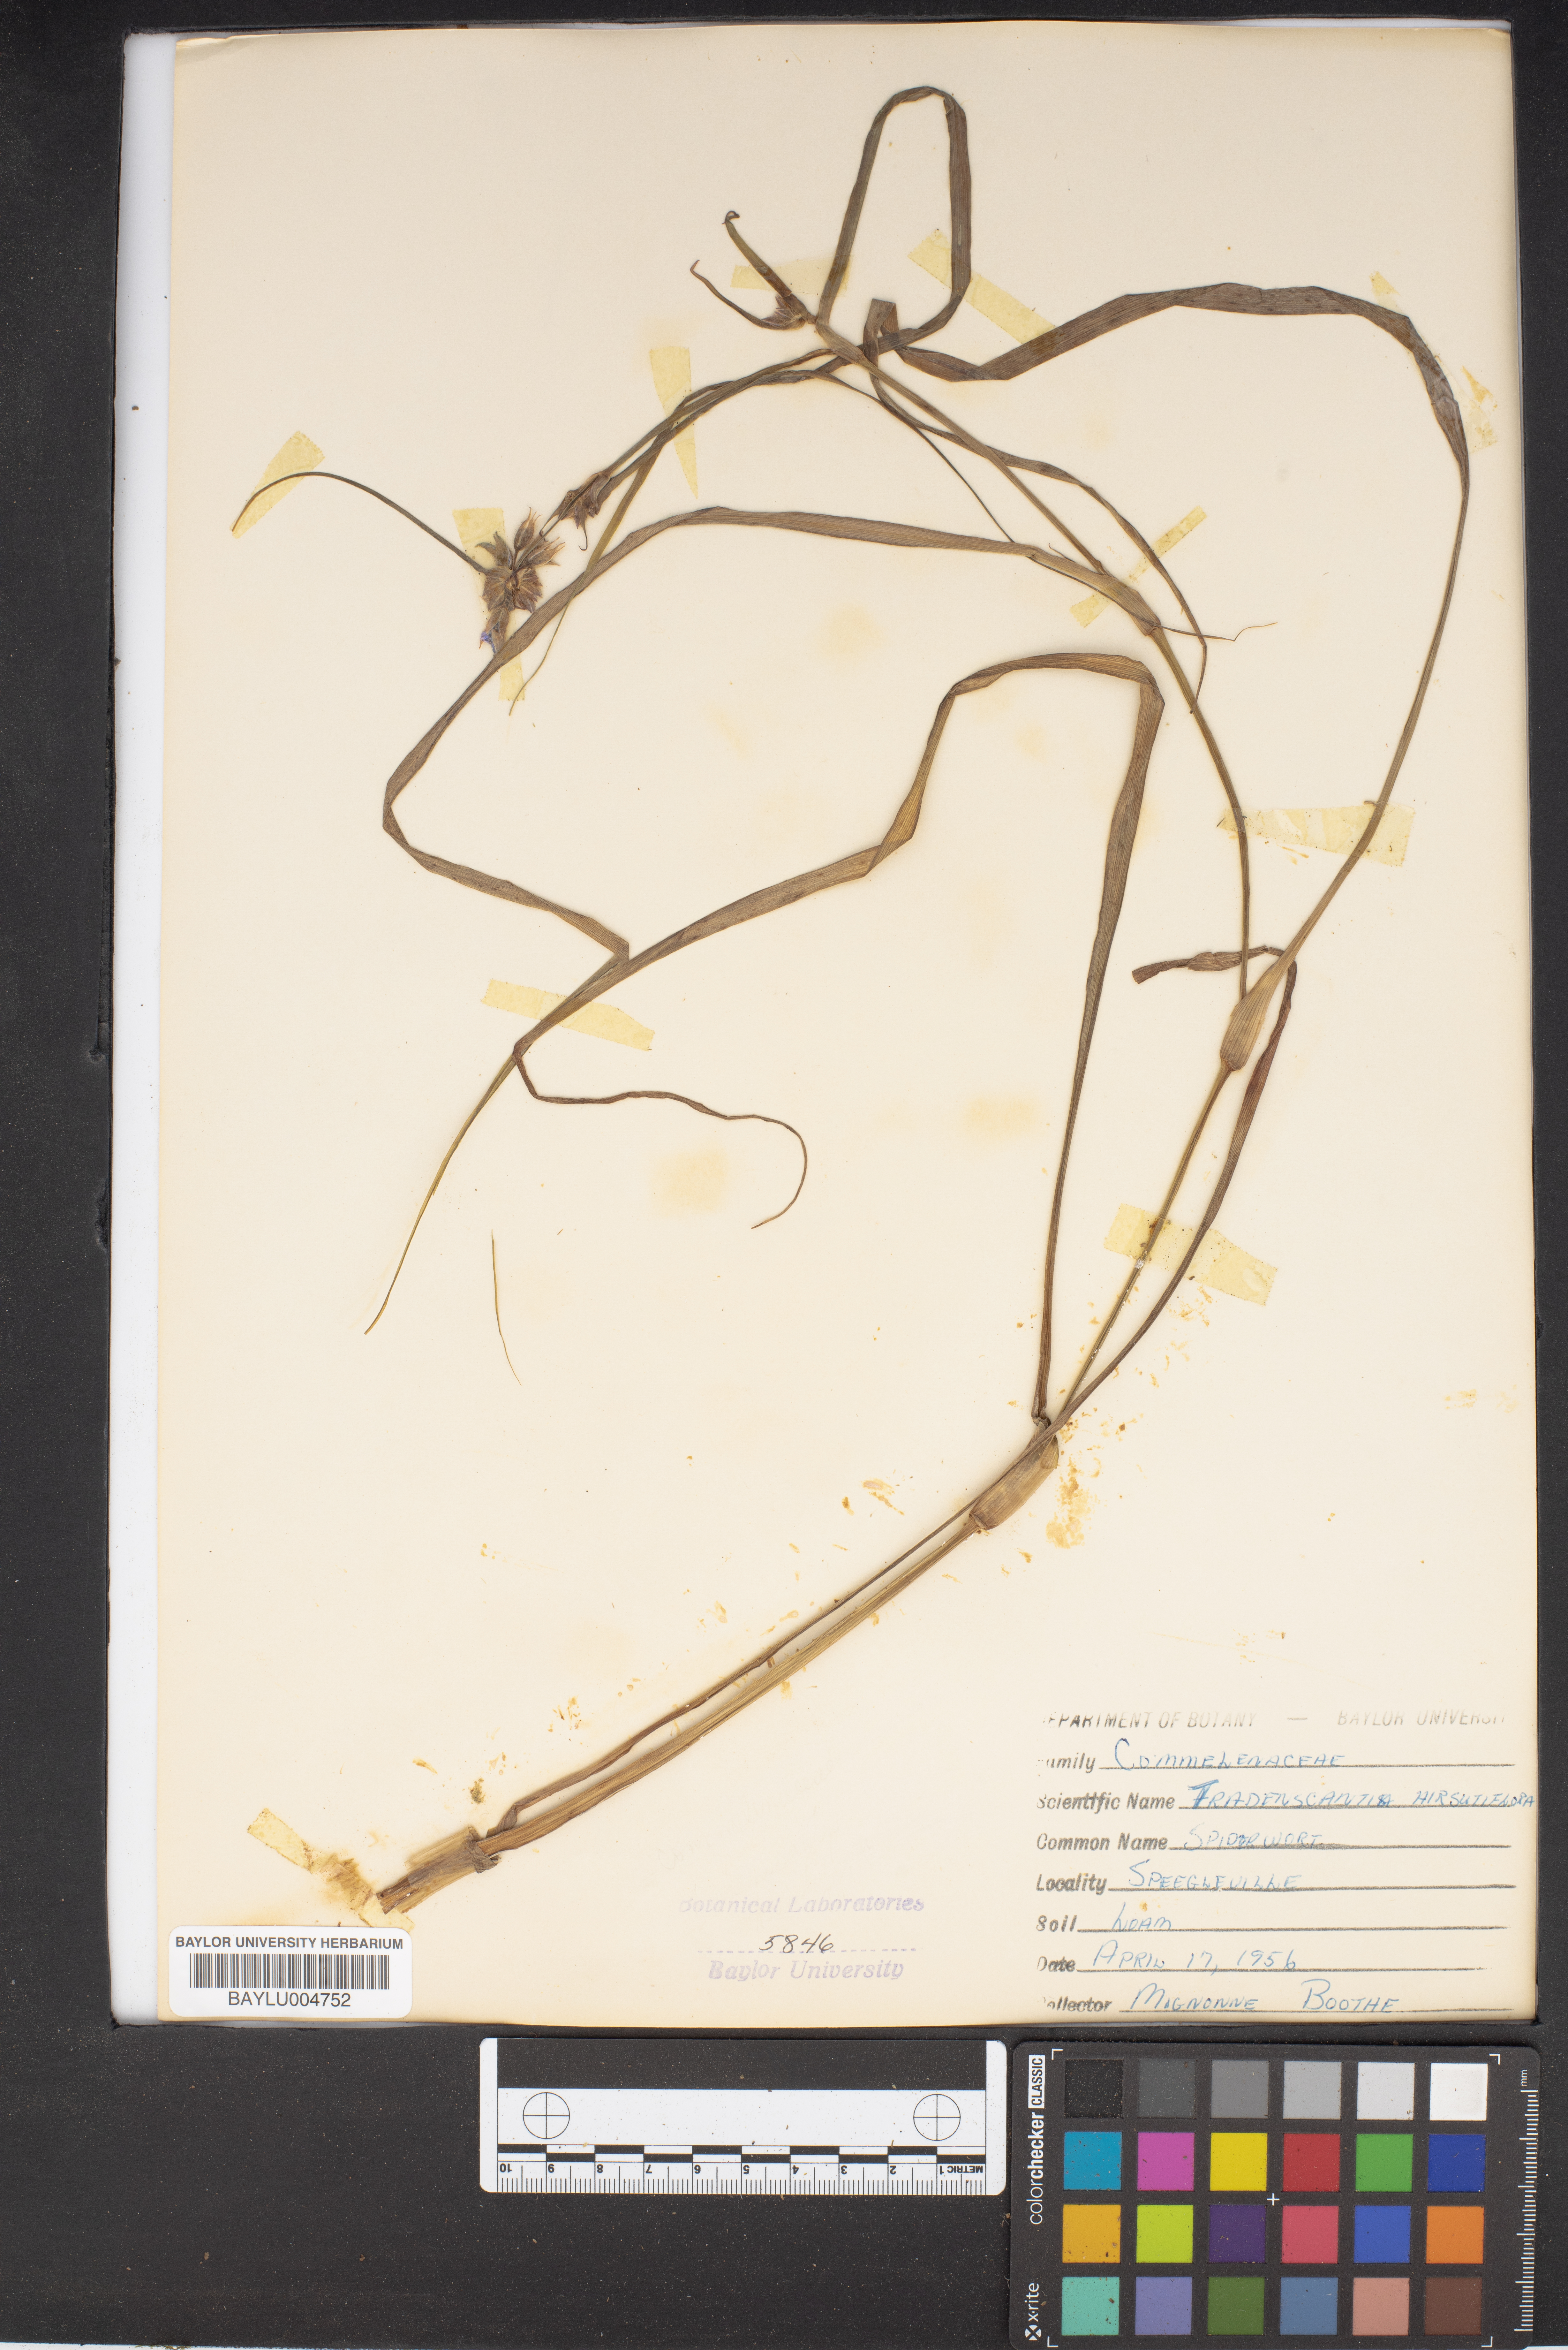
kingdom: Plantae
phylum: Tracheophyta
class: Liliopsida
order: Commelinales
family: Commelinaceae
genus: Tradescantia
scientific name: Tradescantia hirsutiflora
